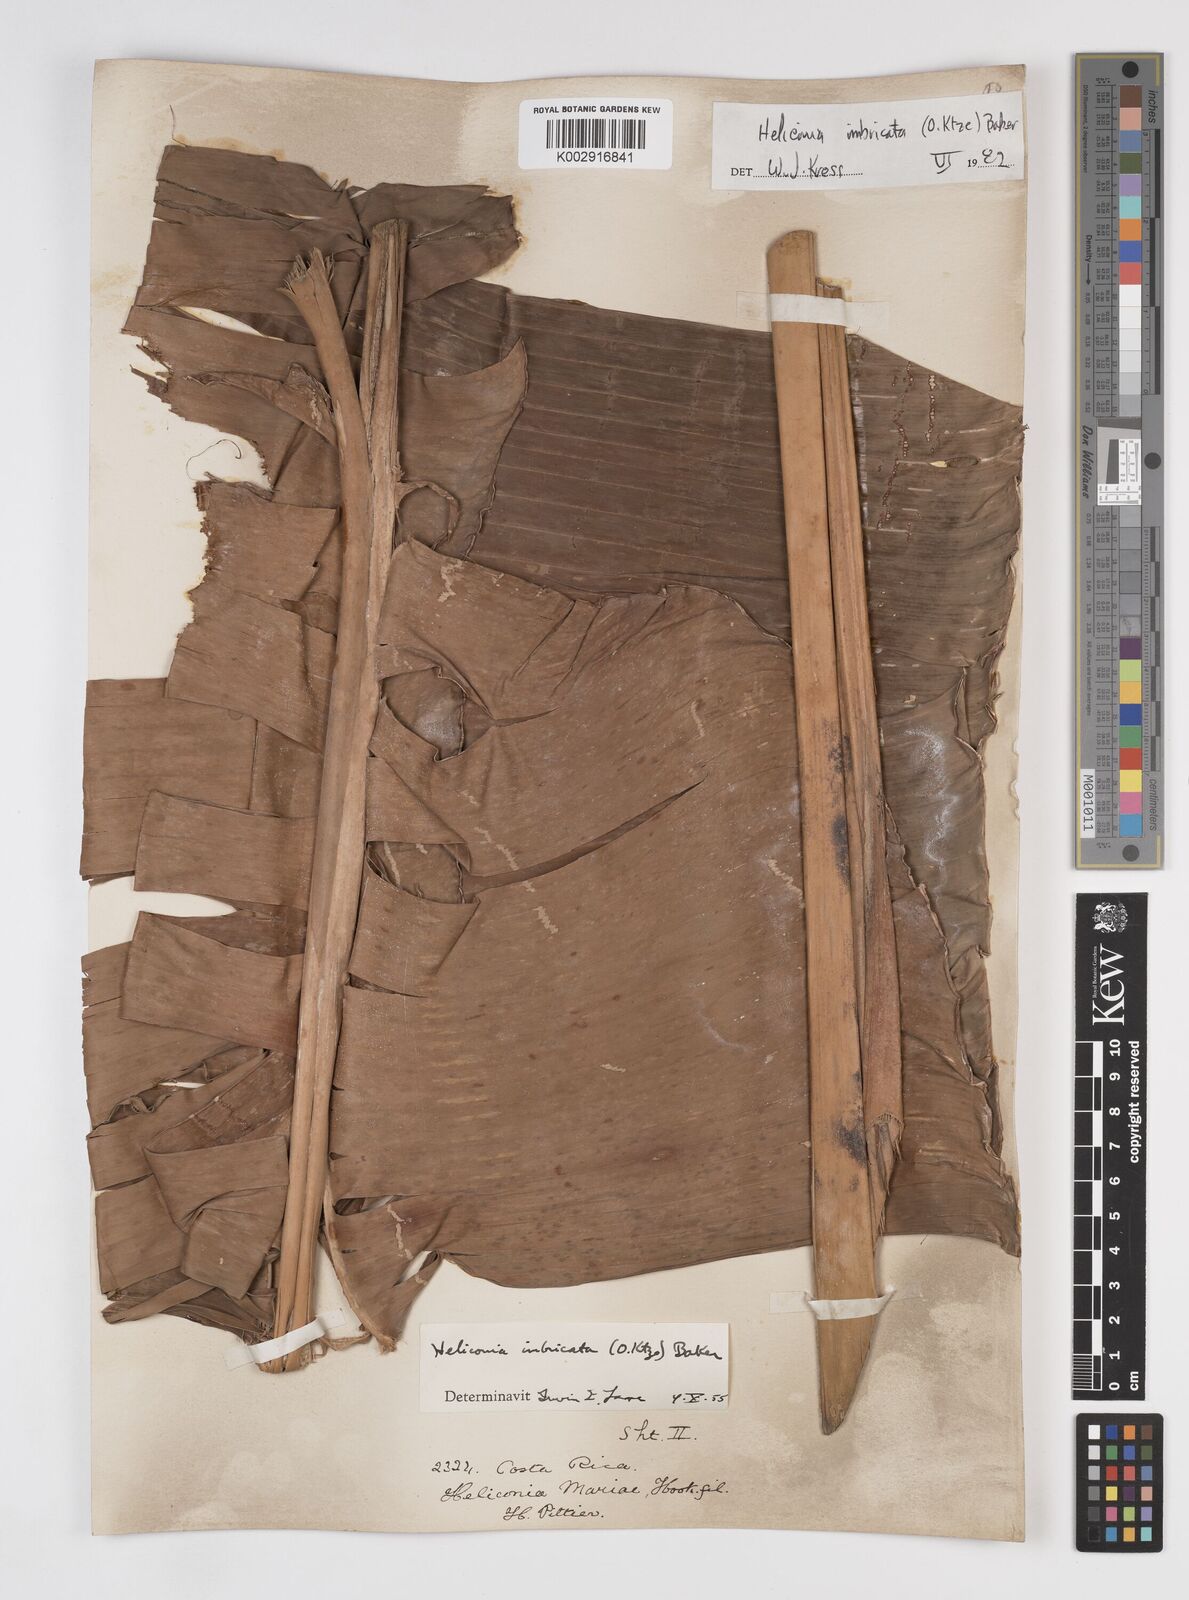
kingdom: Plantae
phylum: Tracheophyta
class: Liliopsida
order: Zingiberales
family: Heliconiaceae
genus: Heliconia
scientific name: Heliconia imbricata
